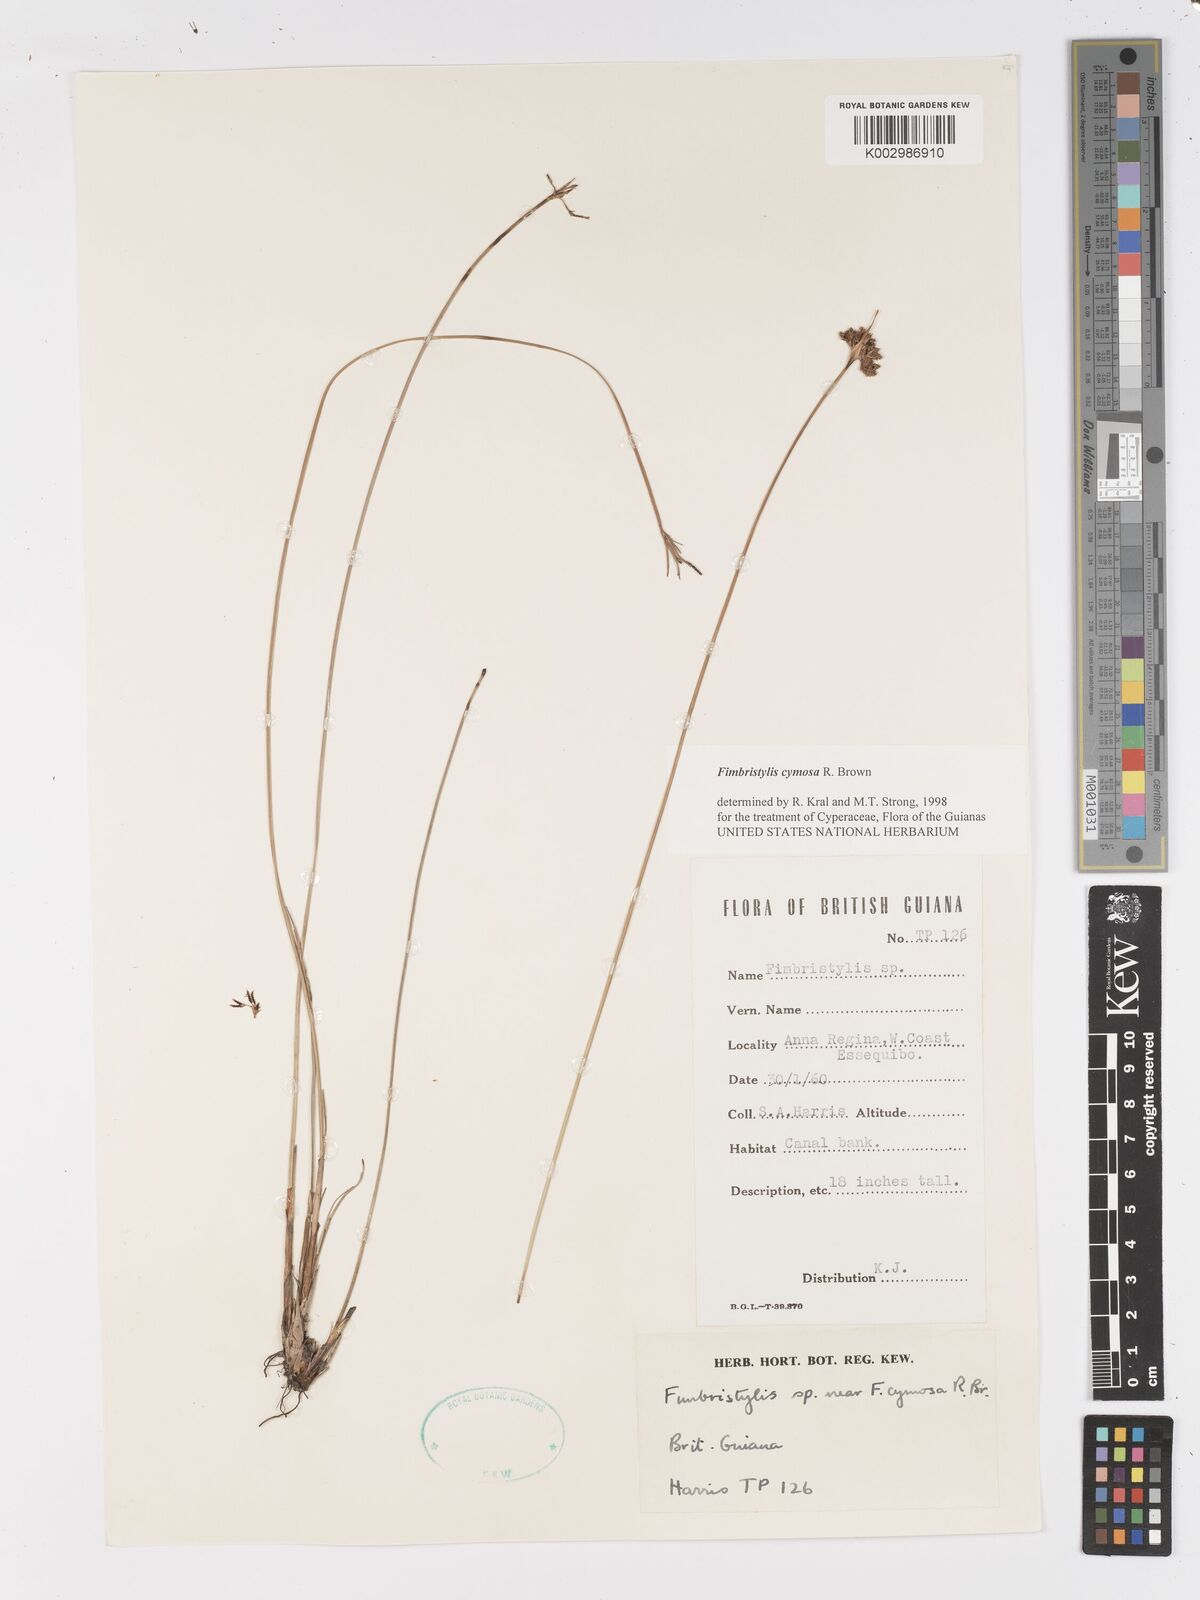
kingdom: Plantae
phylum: Tracheophyta
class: Liliopsida
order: Poales
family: Cyperaceae
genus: Fimbristylis
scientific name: Fimbristylis cymosa
